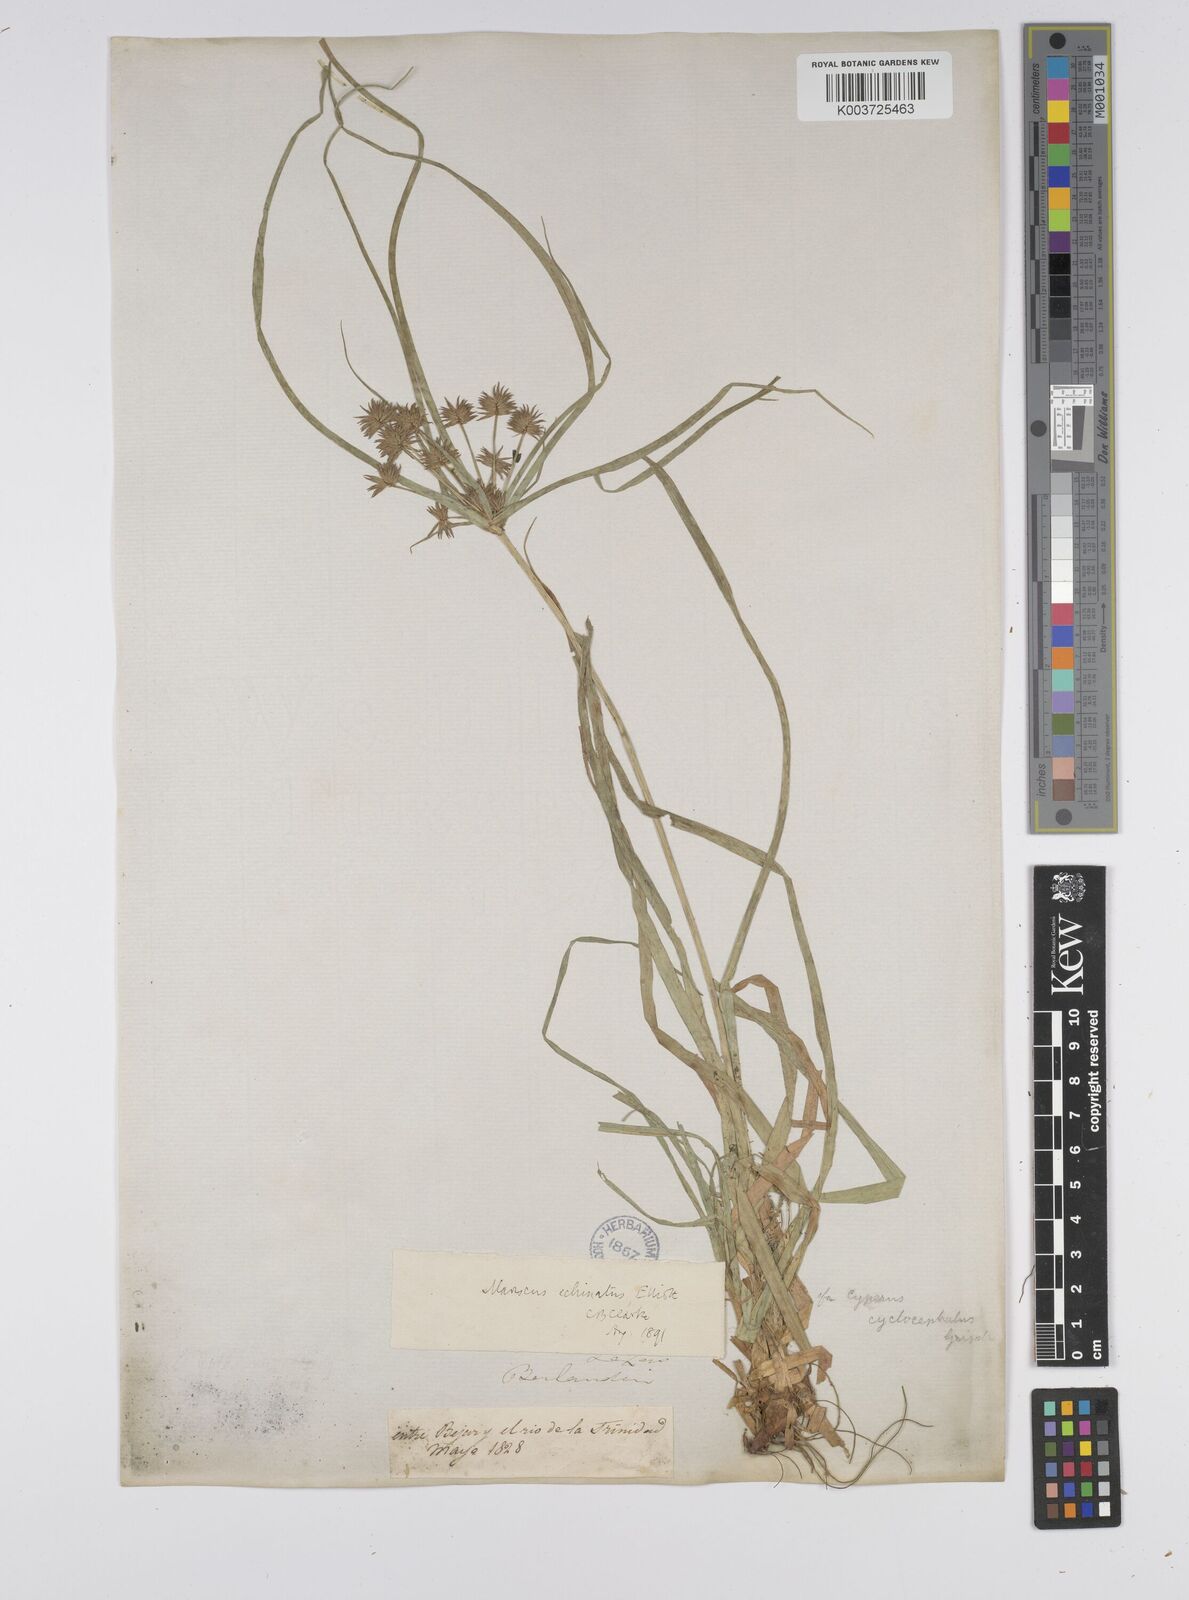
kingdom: Plantae
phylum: Tracheophyta
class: Liliopsida
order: Poales
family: Cyperaceae
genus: Cyperus
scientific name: Cyperus luzulae
